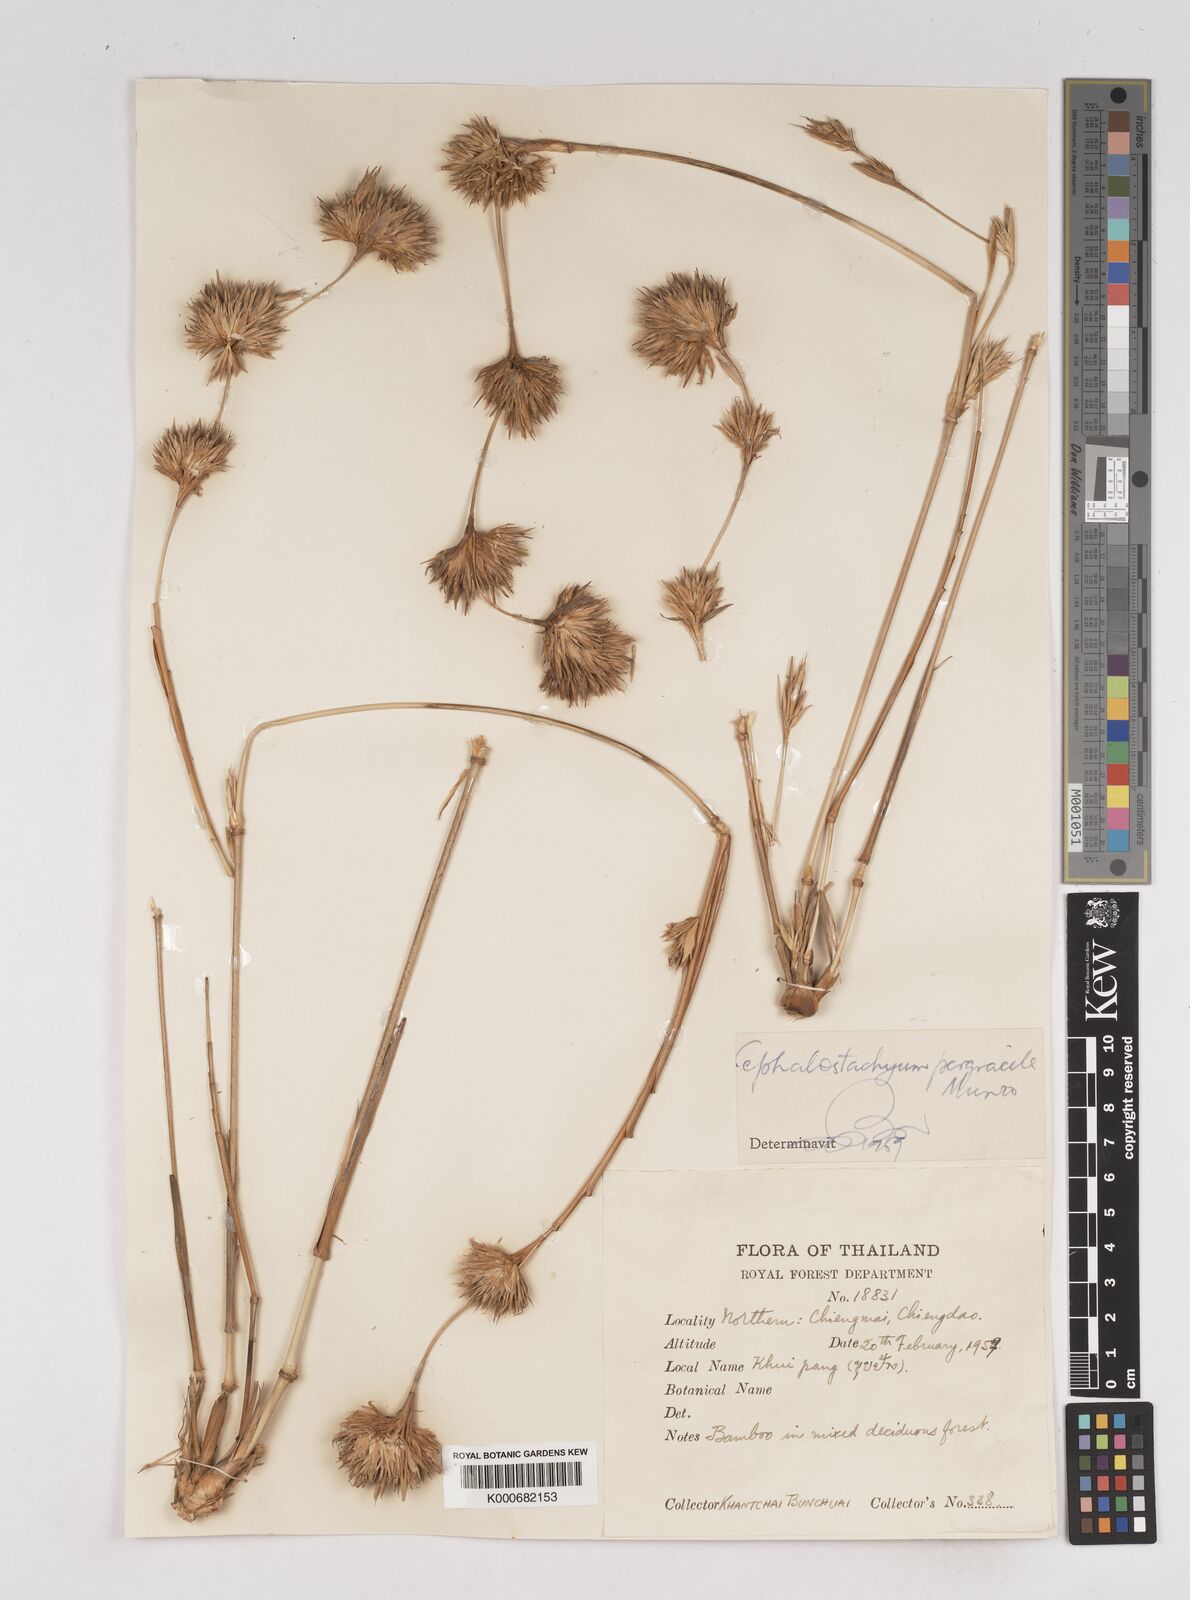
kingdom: Plantae
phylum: Tracheophyta
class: Liliopsida
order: Poales
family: Poaceae
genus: Schizostachyum
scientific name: Schizostachyum pergracile
